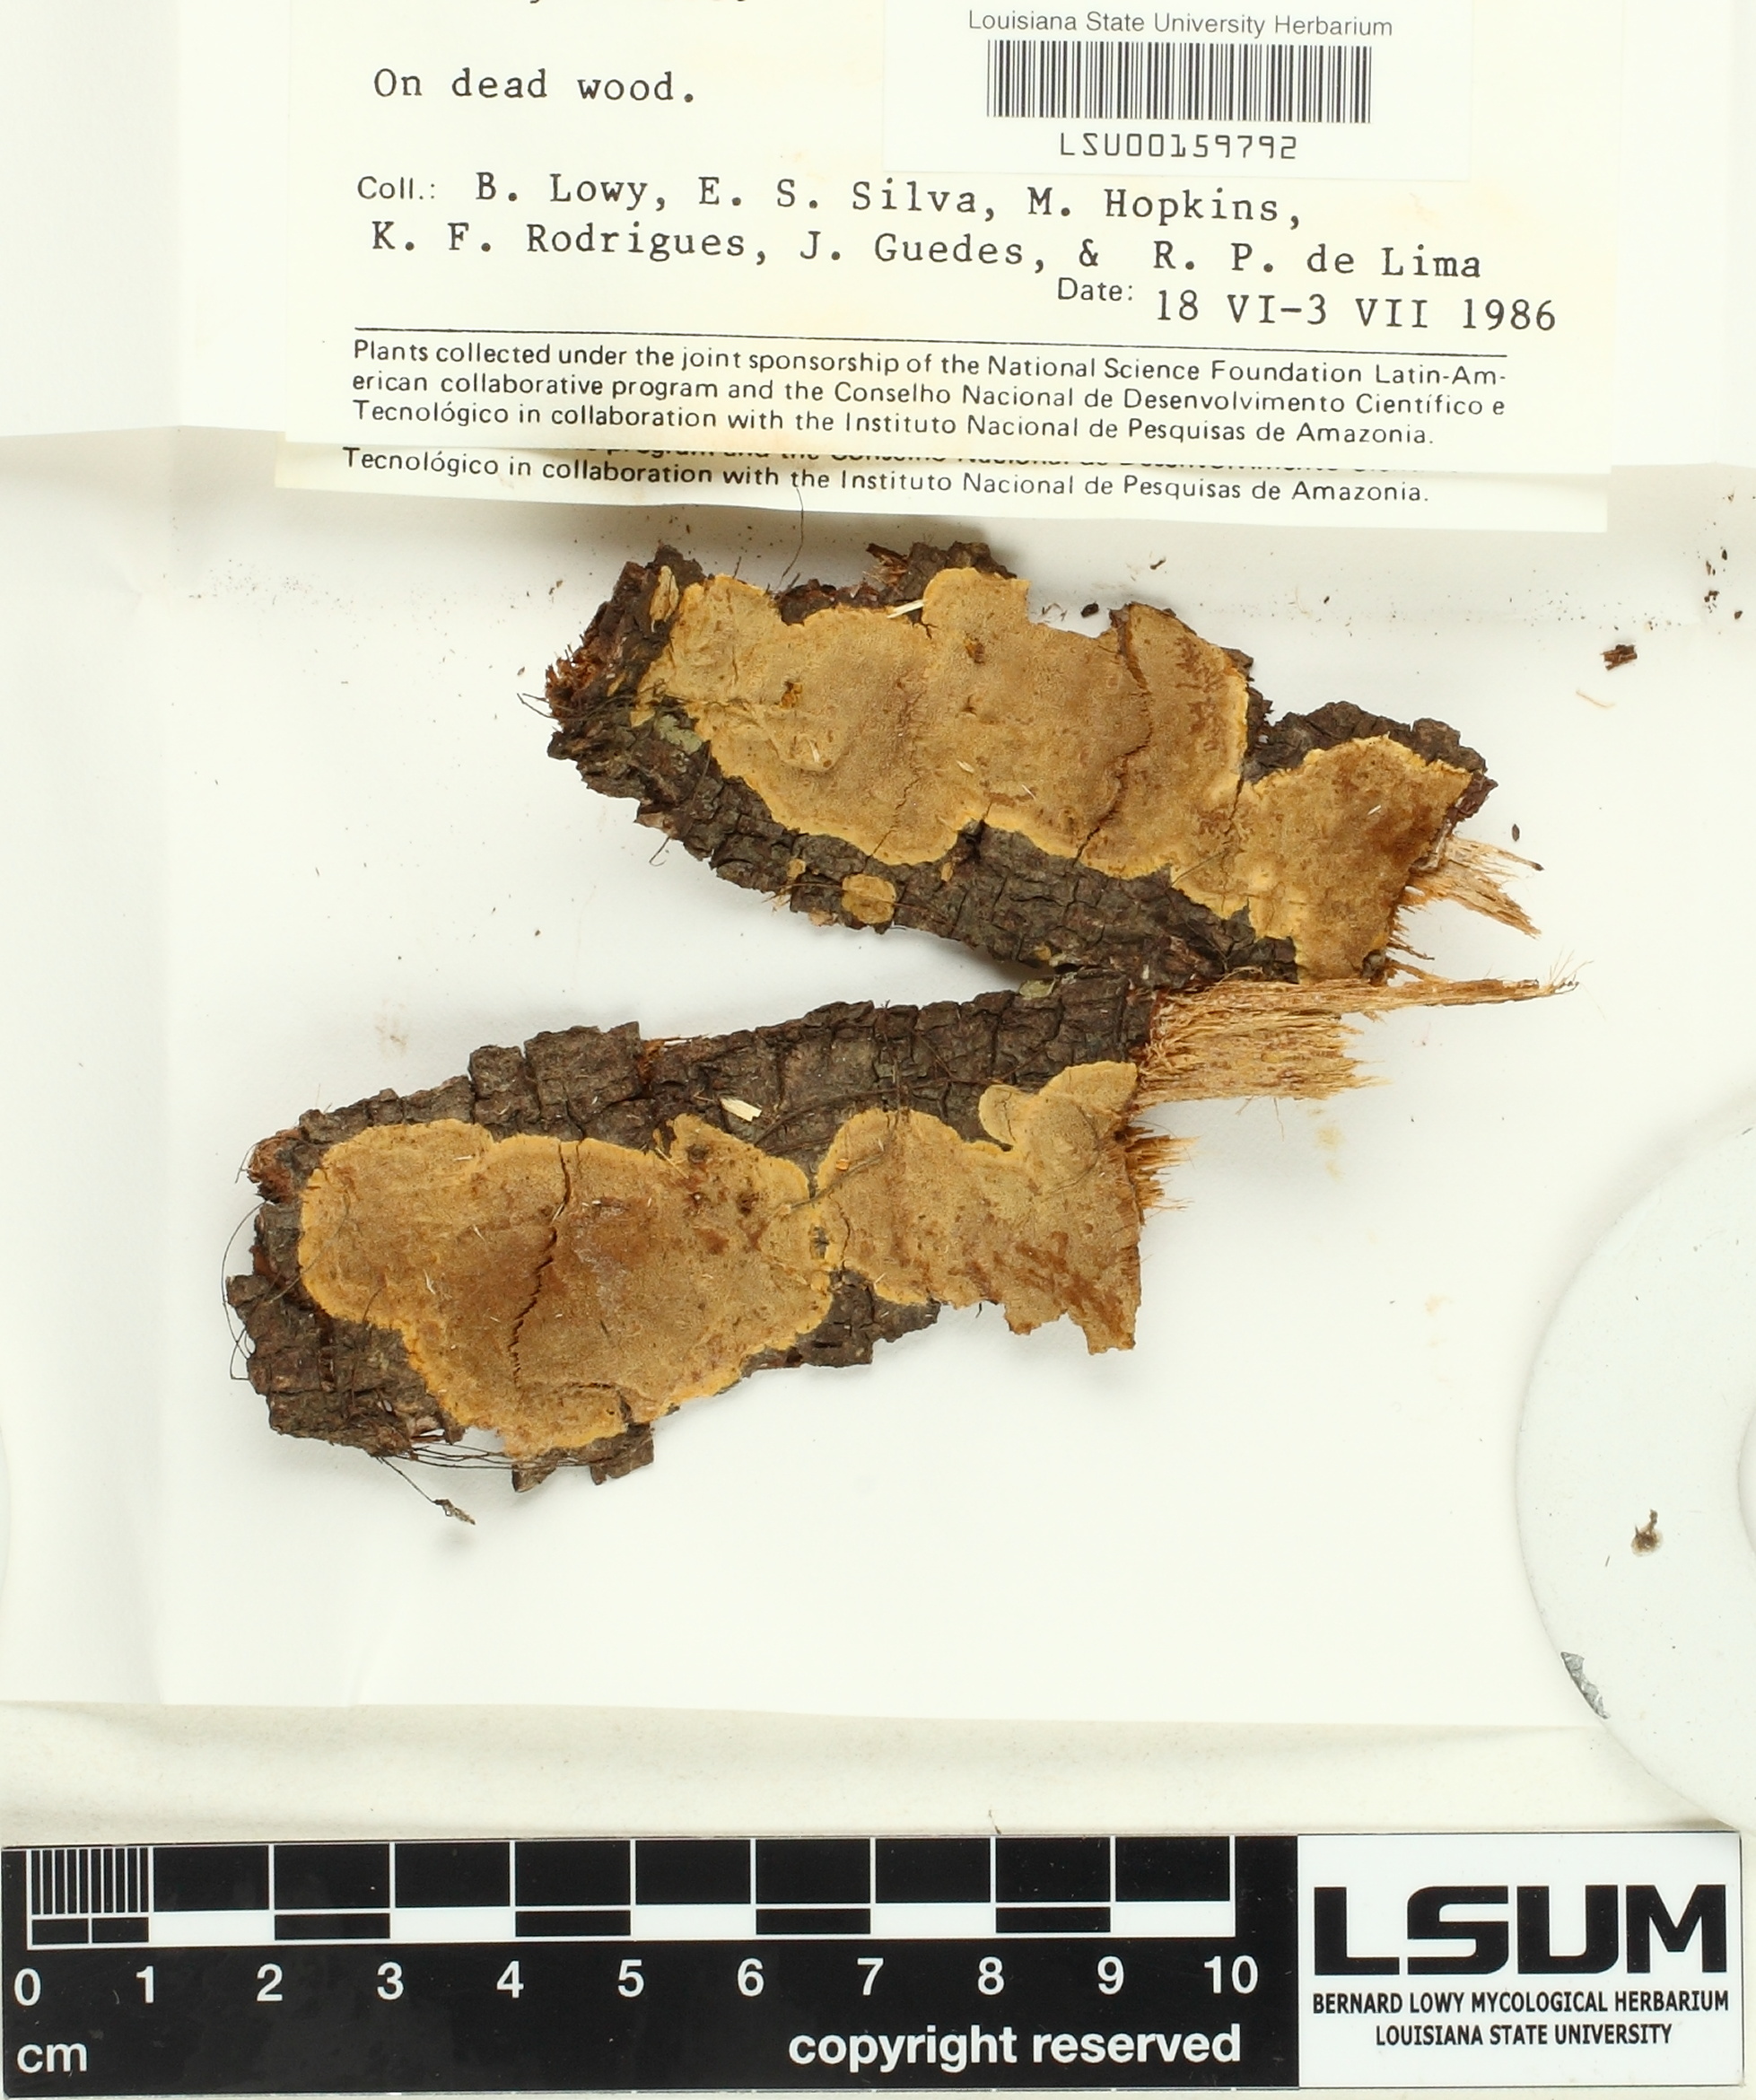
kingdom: Fungi
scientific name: Fungi
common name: Fungi
